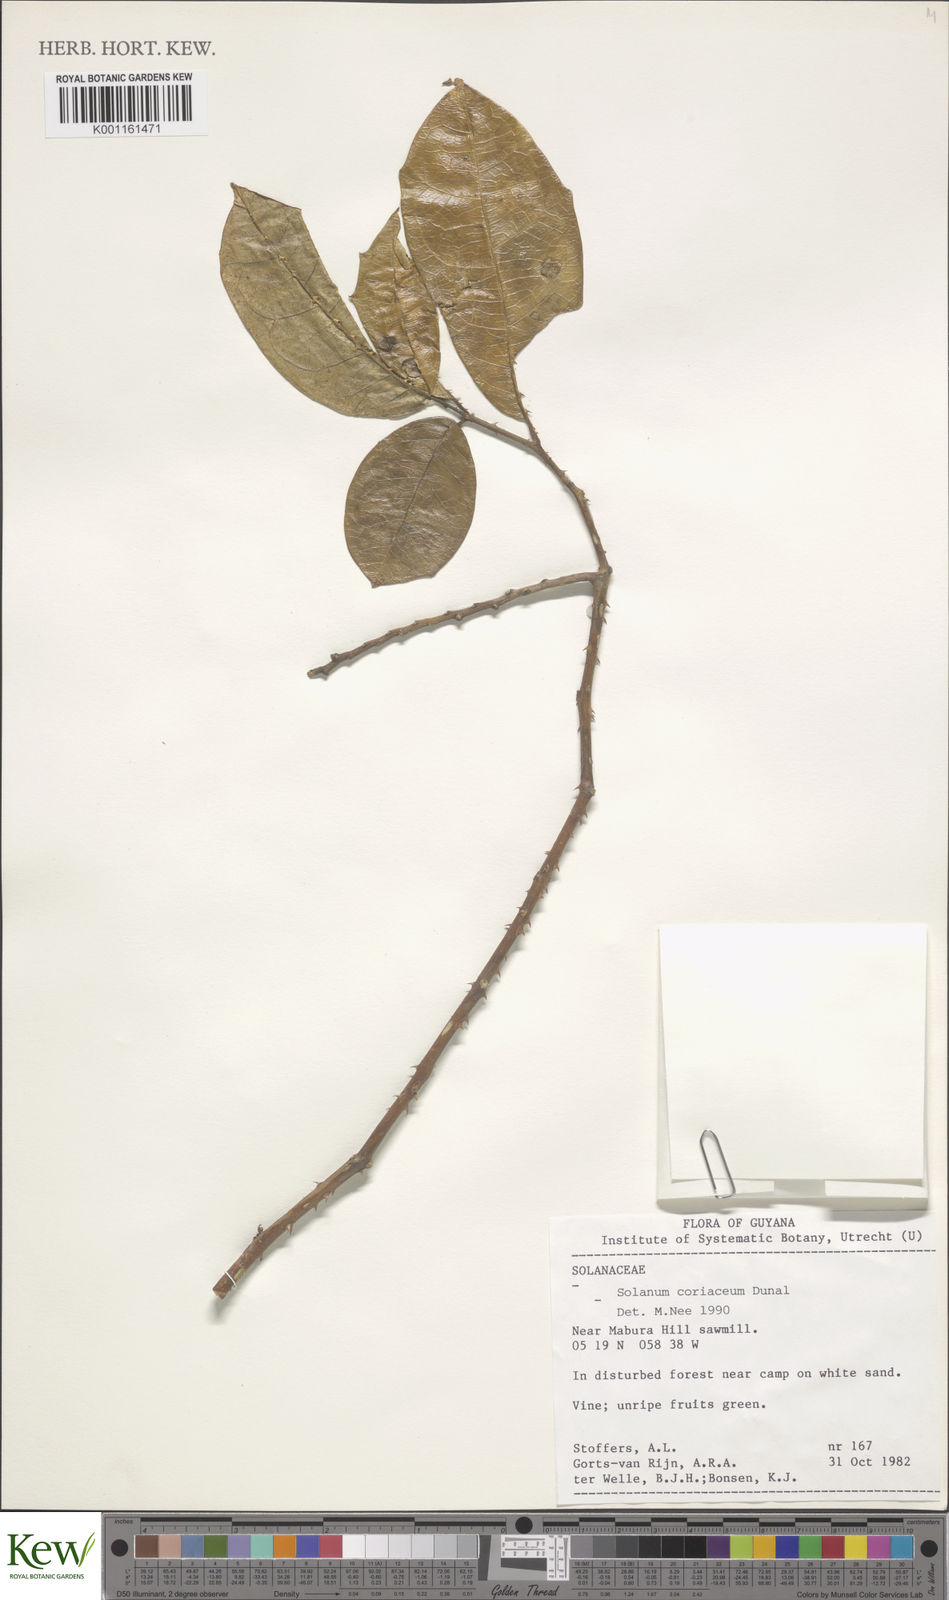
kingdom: Plantae
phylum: Tracheophyta
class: Magnoliopsida
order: Solanales
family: Solanaceae
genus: Solanum
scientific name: Solanum coriaceum
